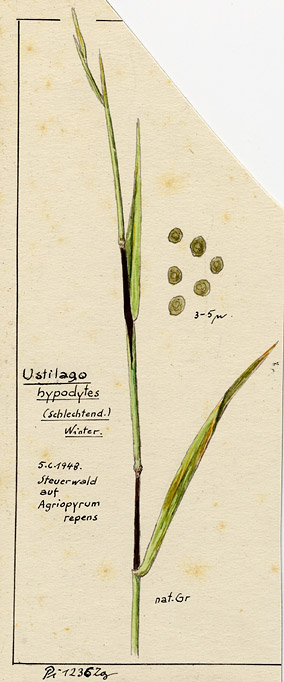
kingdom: Fungi
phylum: Basidiomycota
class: Ustilaginomycetes
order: Ustilaginales
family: Ustilaginaceae
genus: Tranzscheliella
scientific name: Tranzscheliella hypodytes
